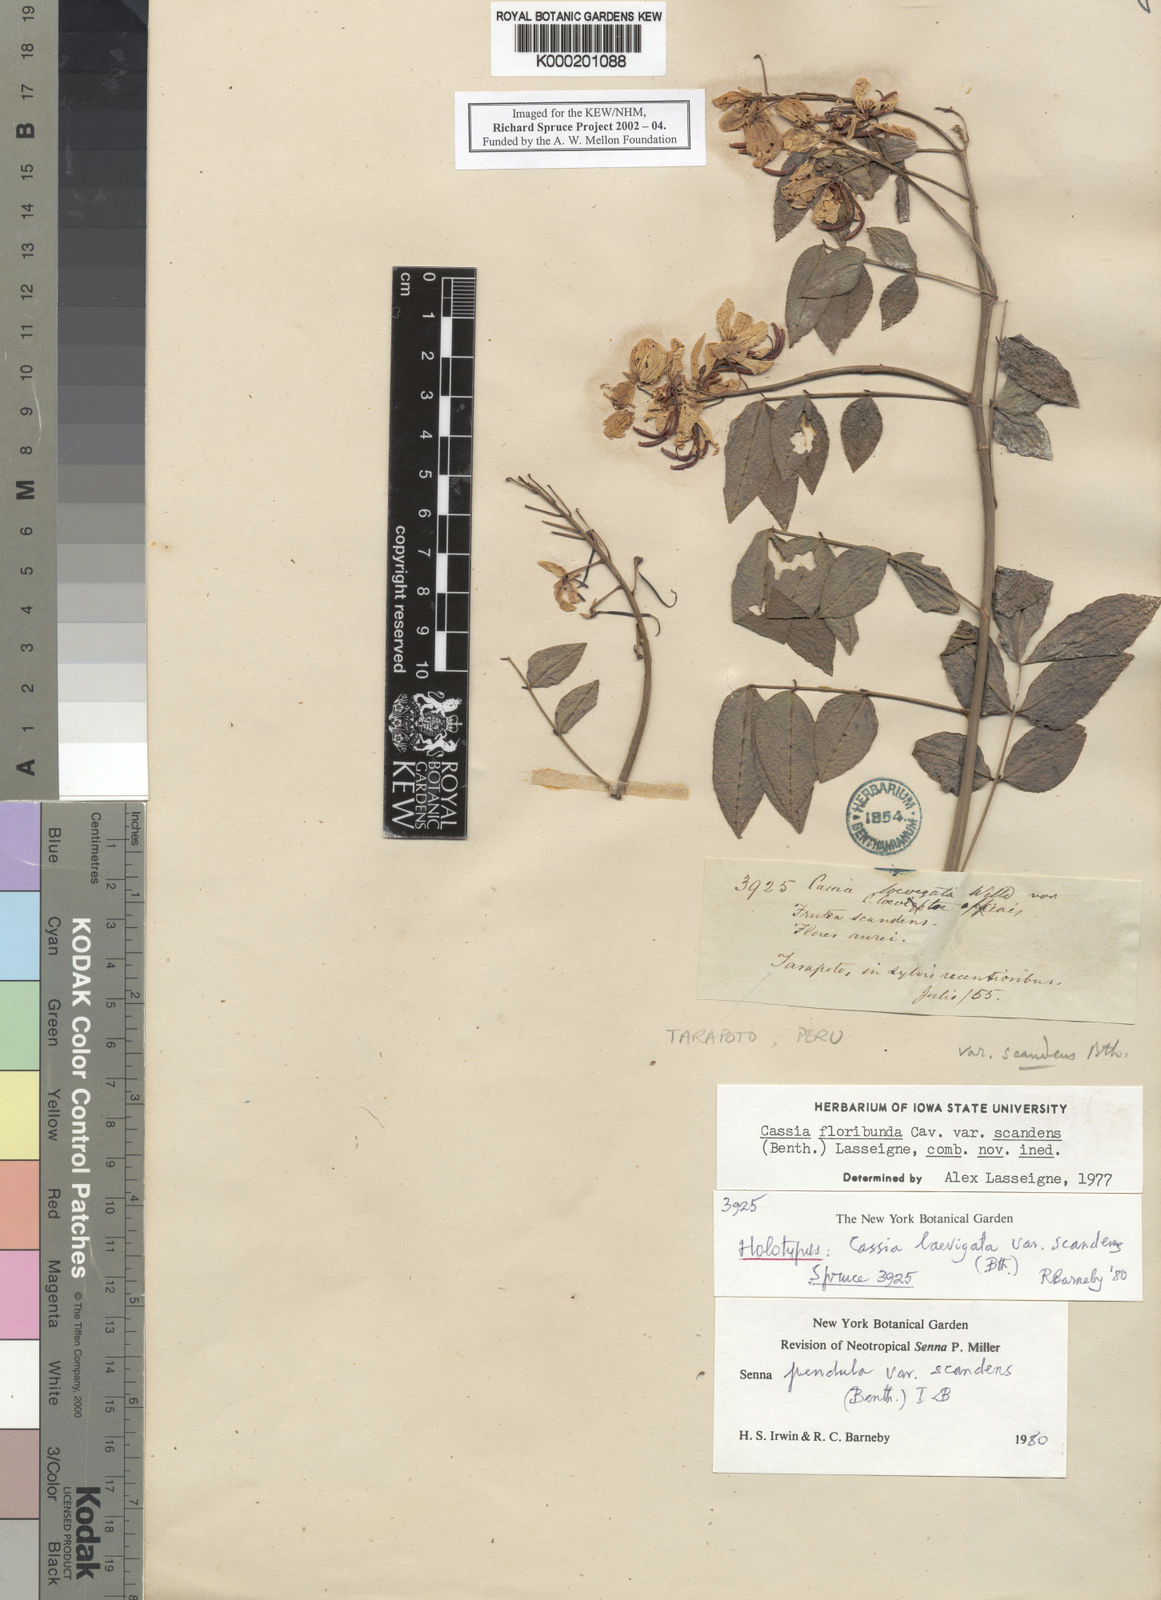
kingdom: Plantae
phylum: Tracheophyta
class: Magnoliopsida
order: Fabales
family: Fabaceae
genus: Senna
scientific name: Senna pendula
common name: Easter cassia
